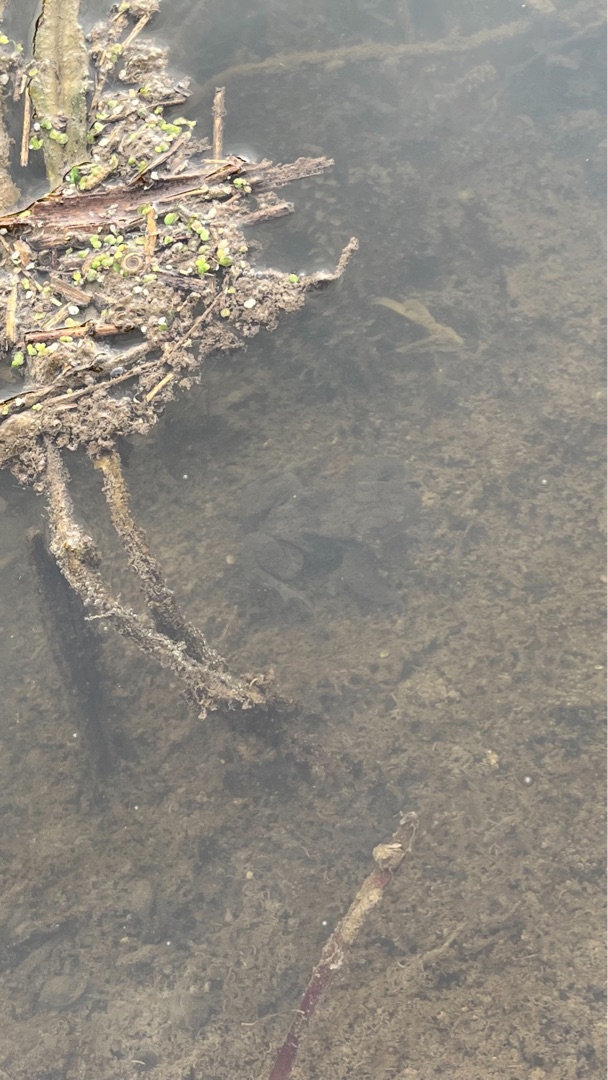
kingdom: Animalia
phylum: Chordata
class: Amphibia
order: Anura
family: Bufonidae
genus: Bufo
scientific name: Bufo bufo
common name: Skrubtudse
